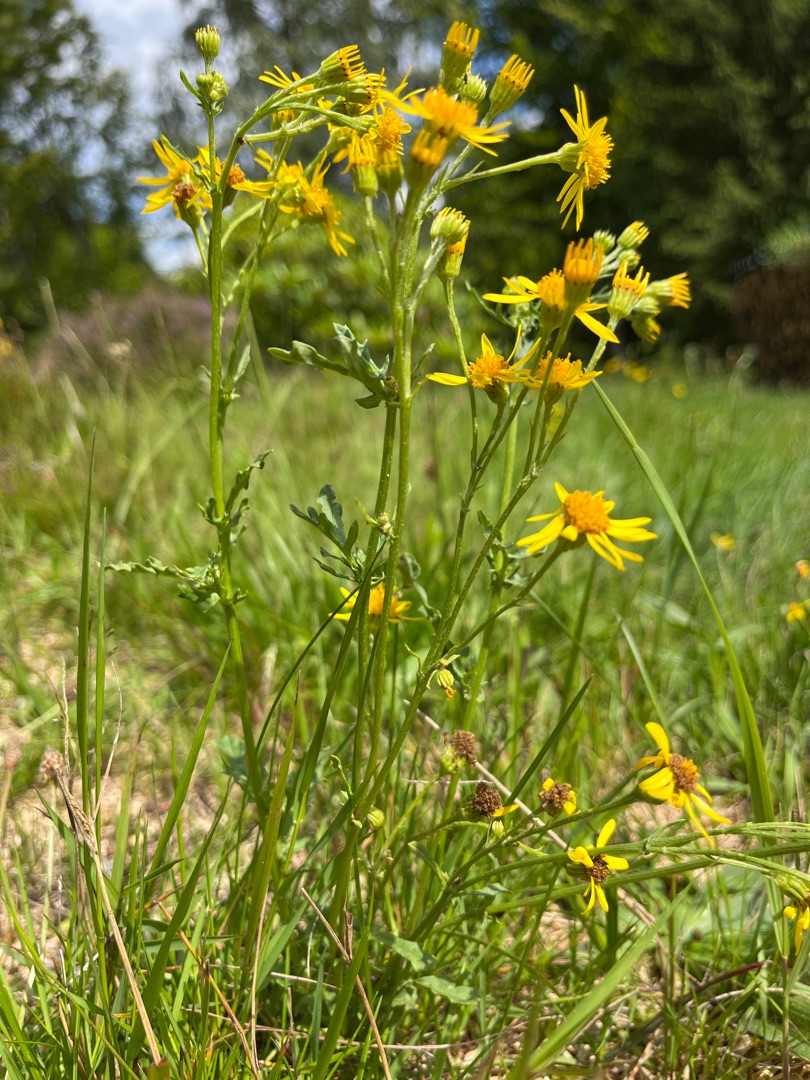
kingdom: Plantae
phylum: Tracheophyta
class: Magnoliopsida
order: Asterales
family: Asteraceae
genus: Jacobaea
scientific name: Jacobaea vulgaris
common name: Eng-brandbæger
